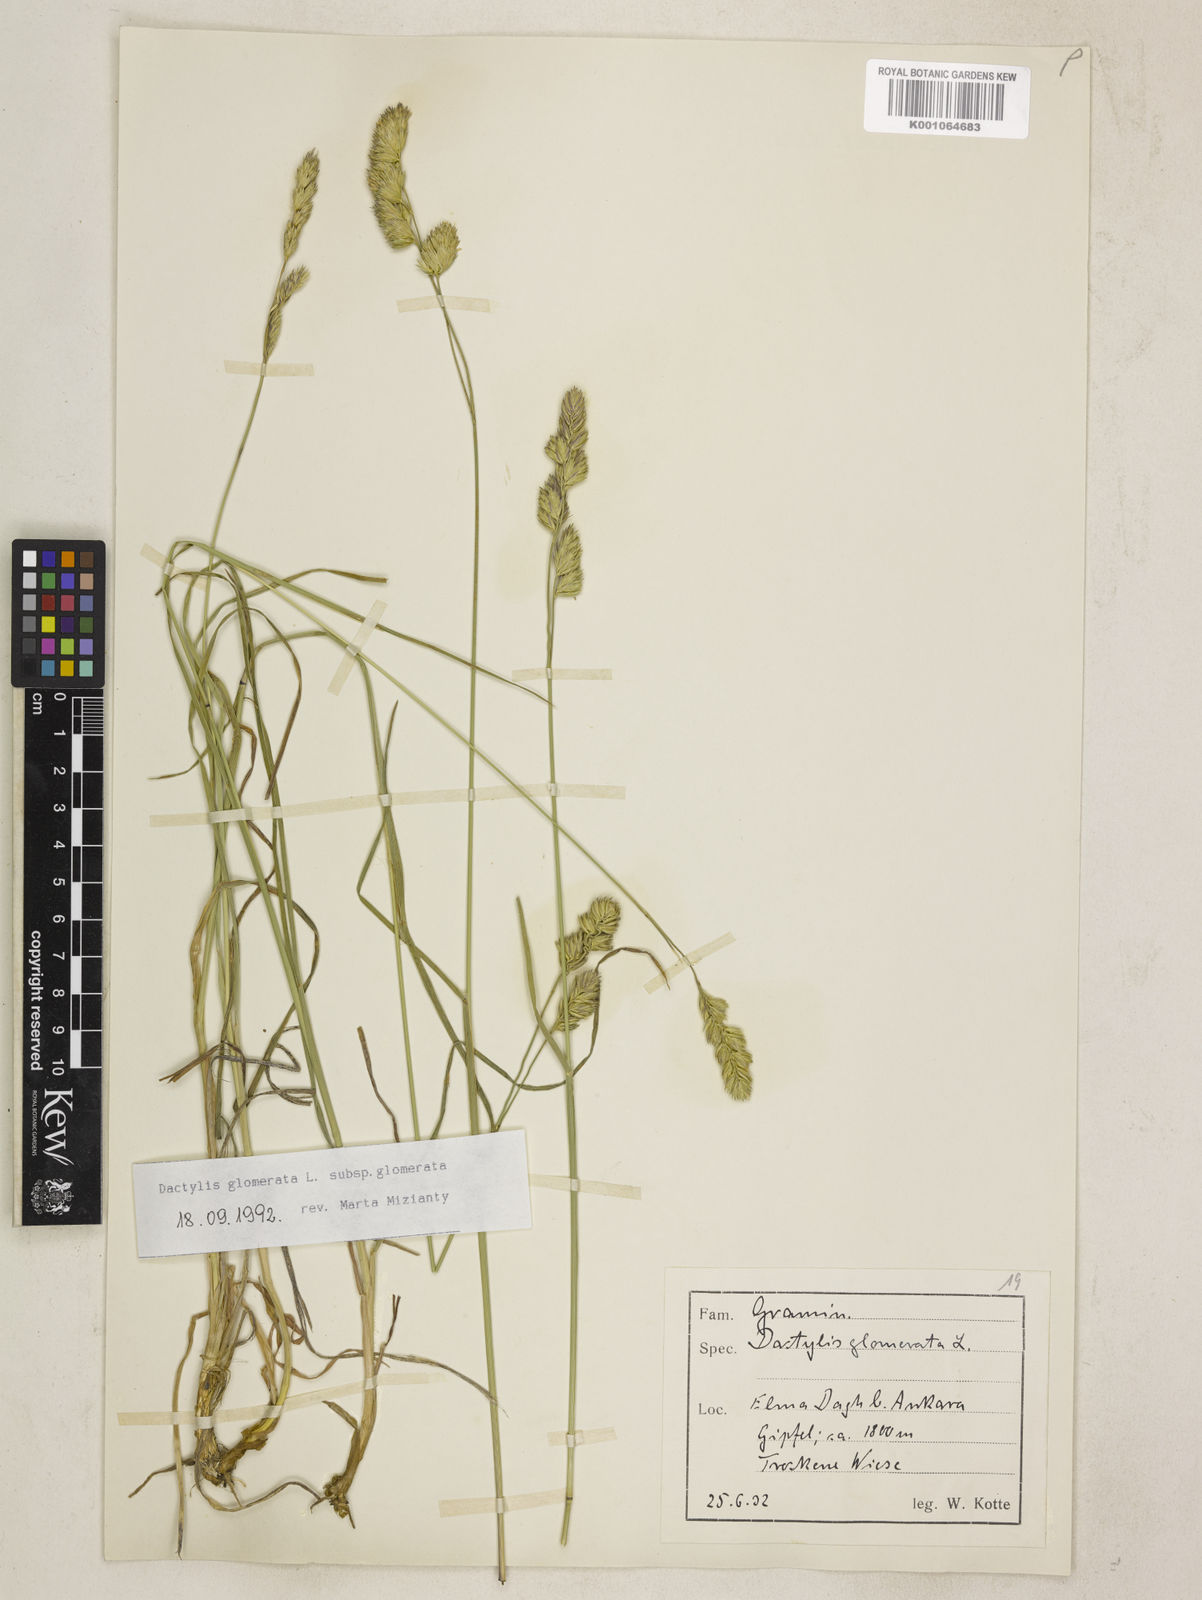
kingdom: Plantae
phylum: Tracheophyta
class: Liliopsida
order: Poales
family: Poaceae
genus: Dactylis
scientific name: Dactylis glomerata
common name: Orchardgrass
